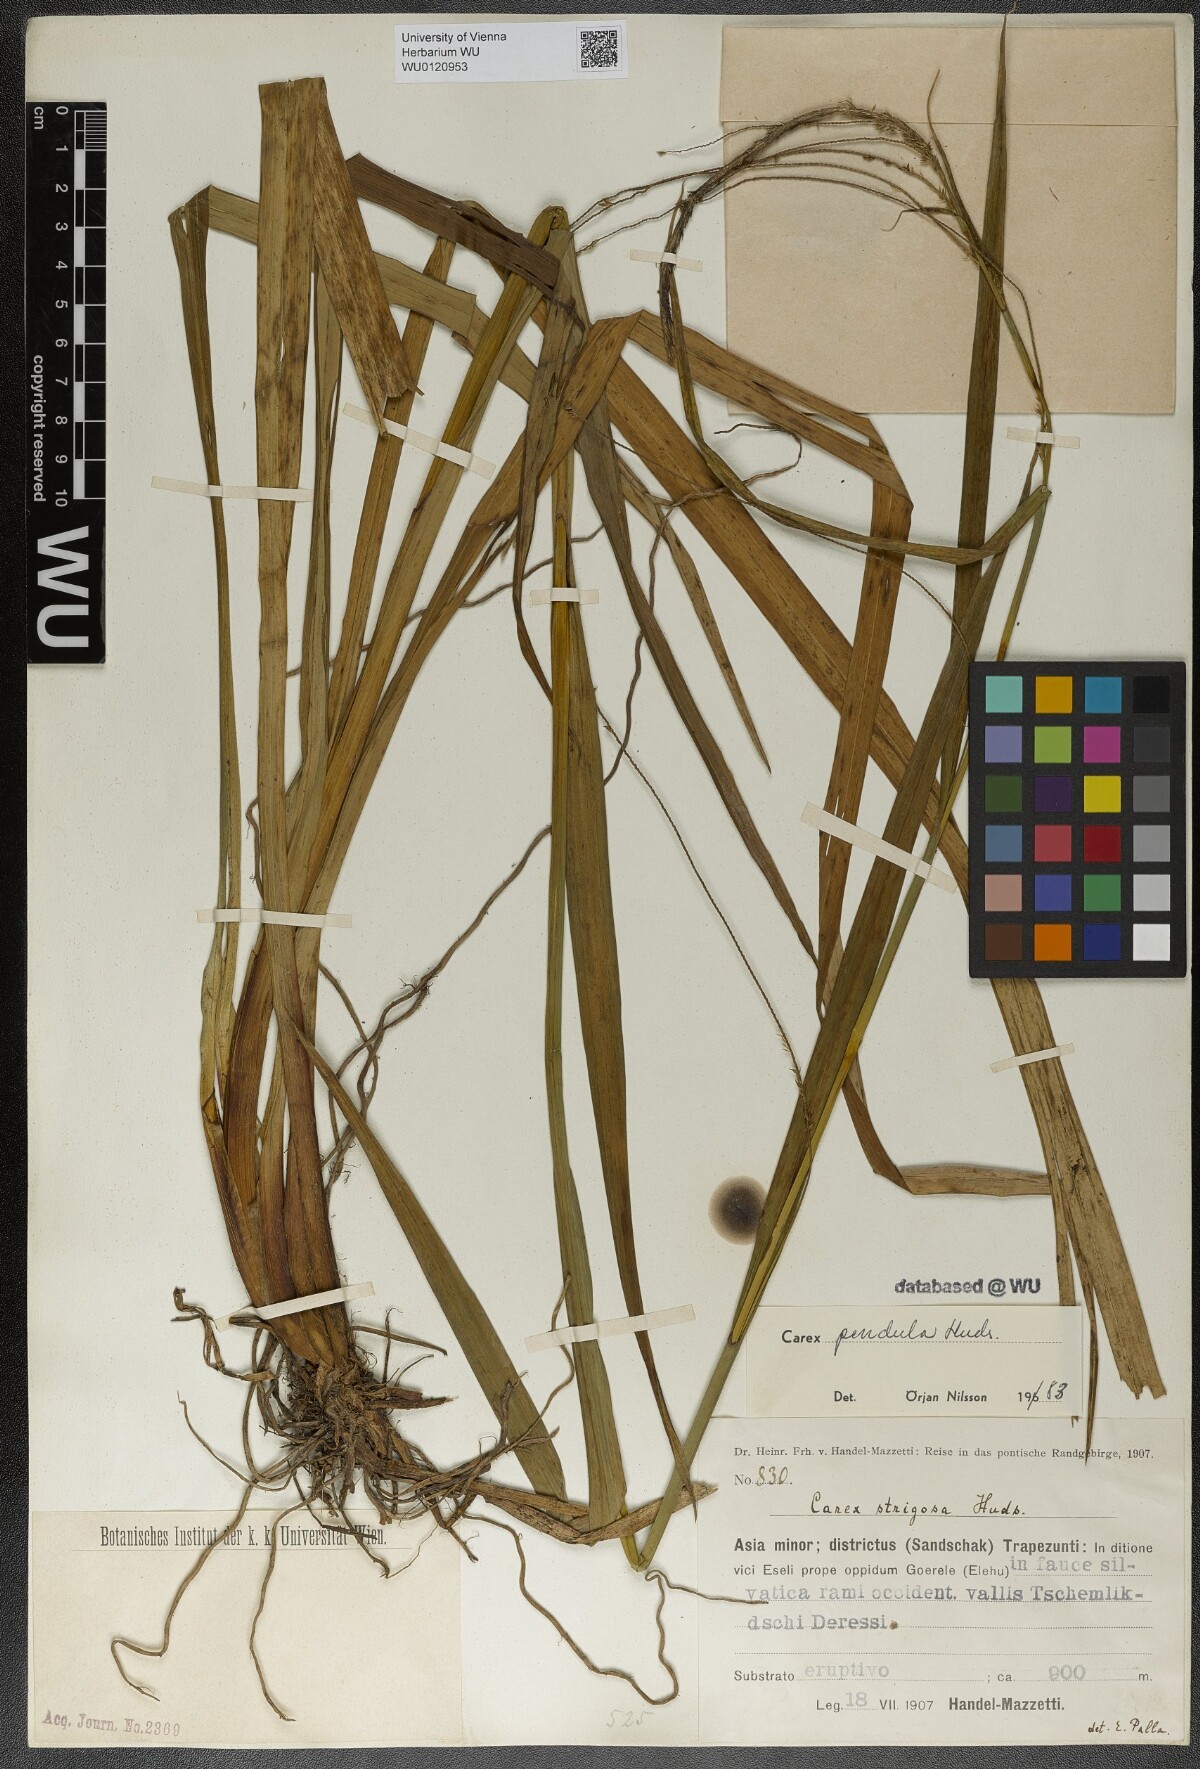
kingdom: Plantae
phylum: Tracheophyta
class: Liliopsida
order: Poales
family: Cyperaceae
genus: Carex
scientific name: Carex pendula
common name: Pendulous sedge
